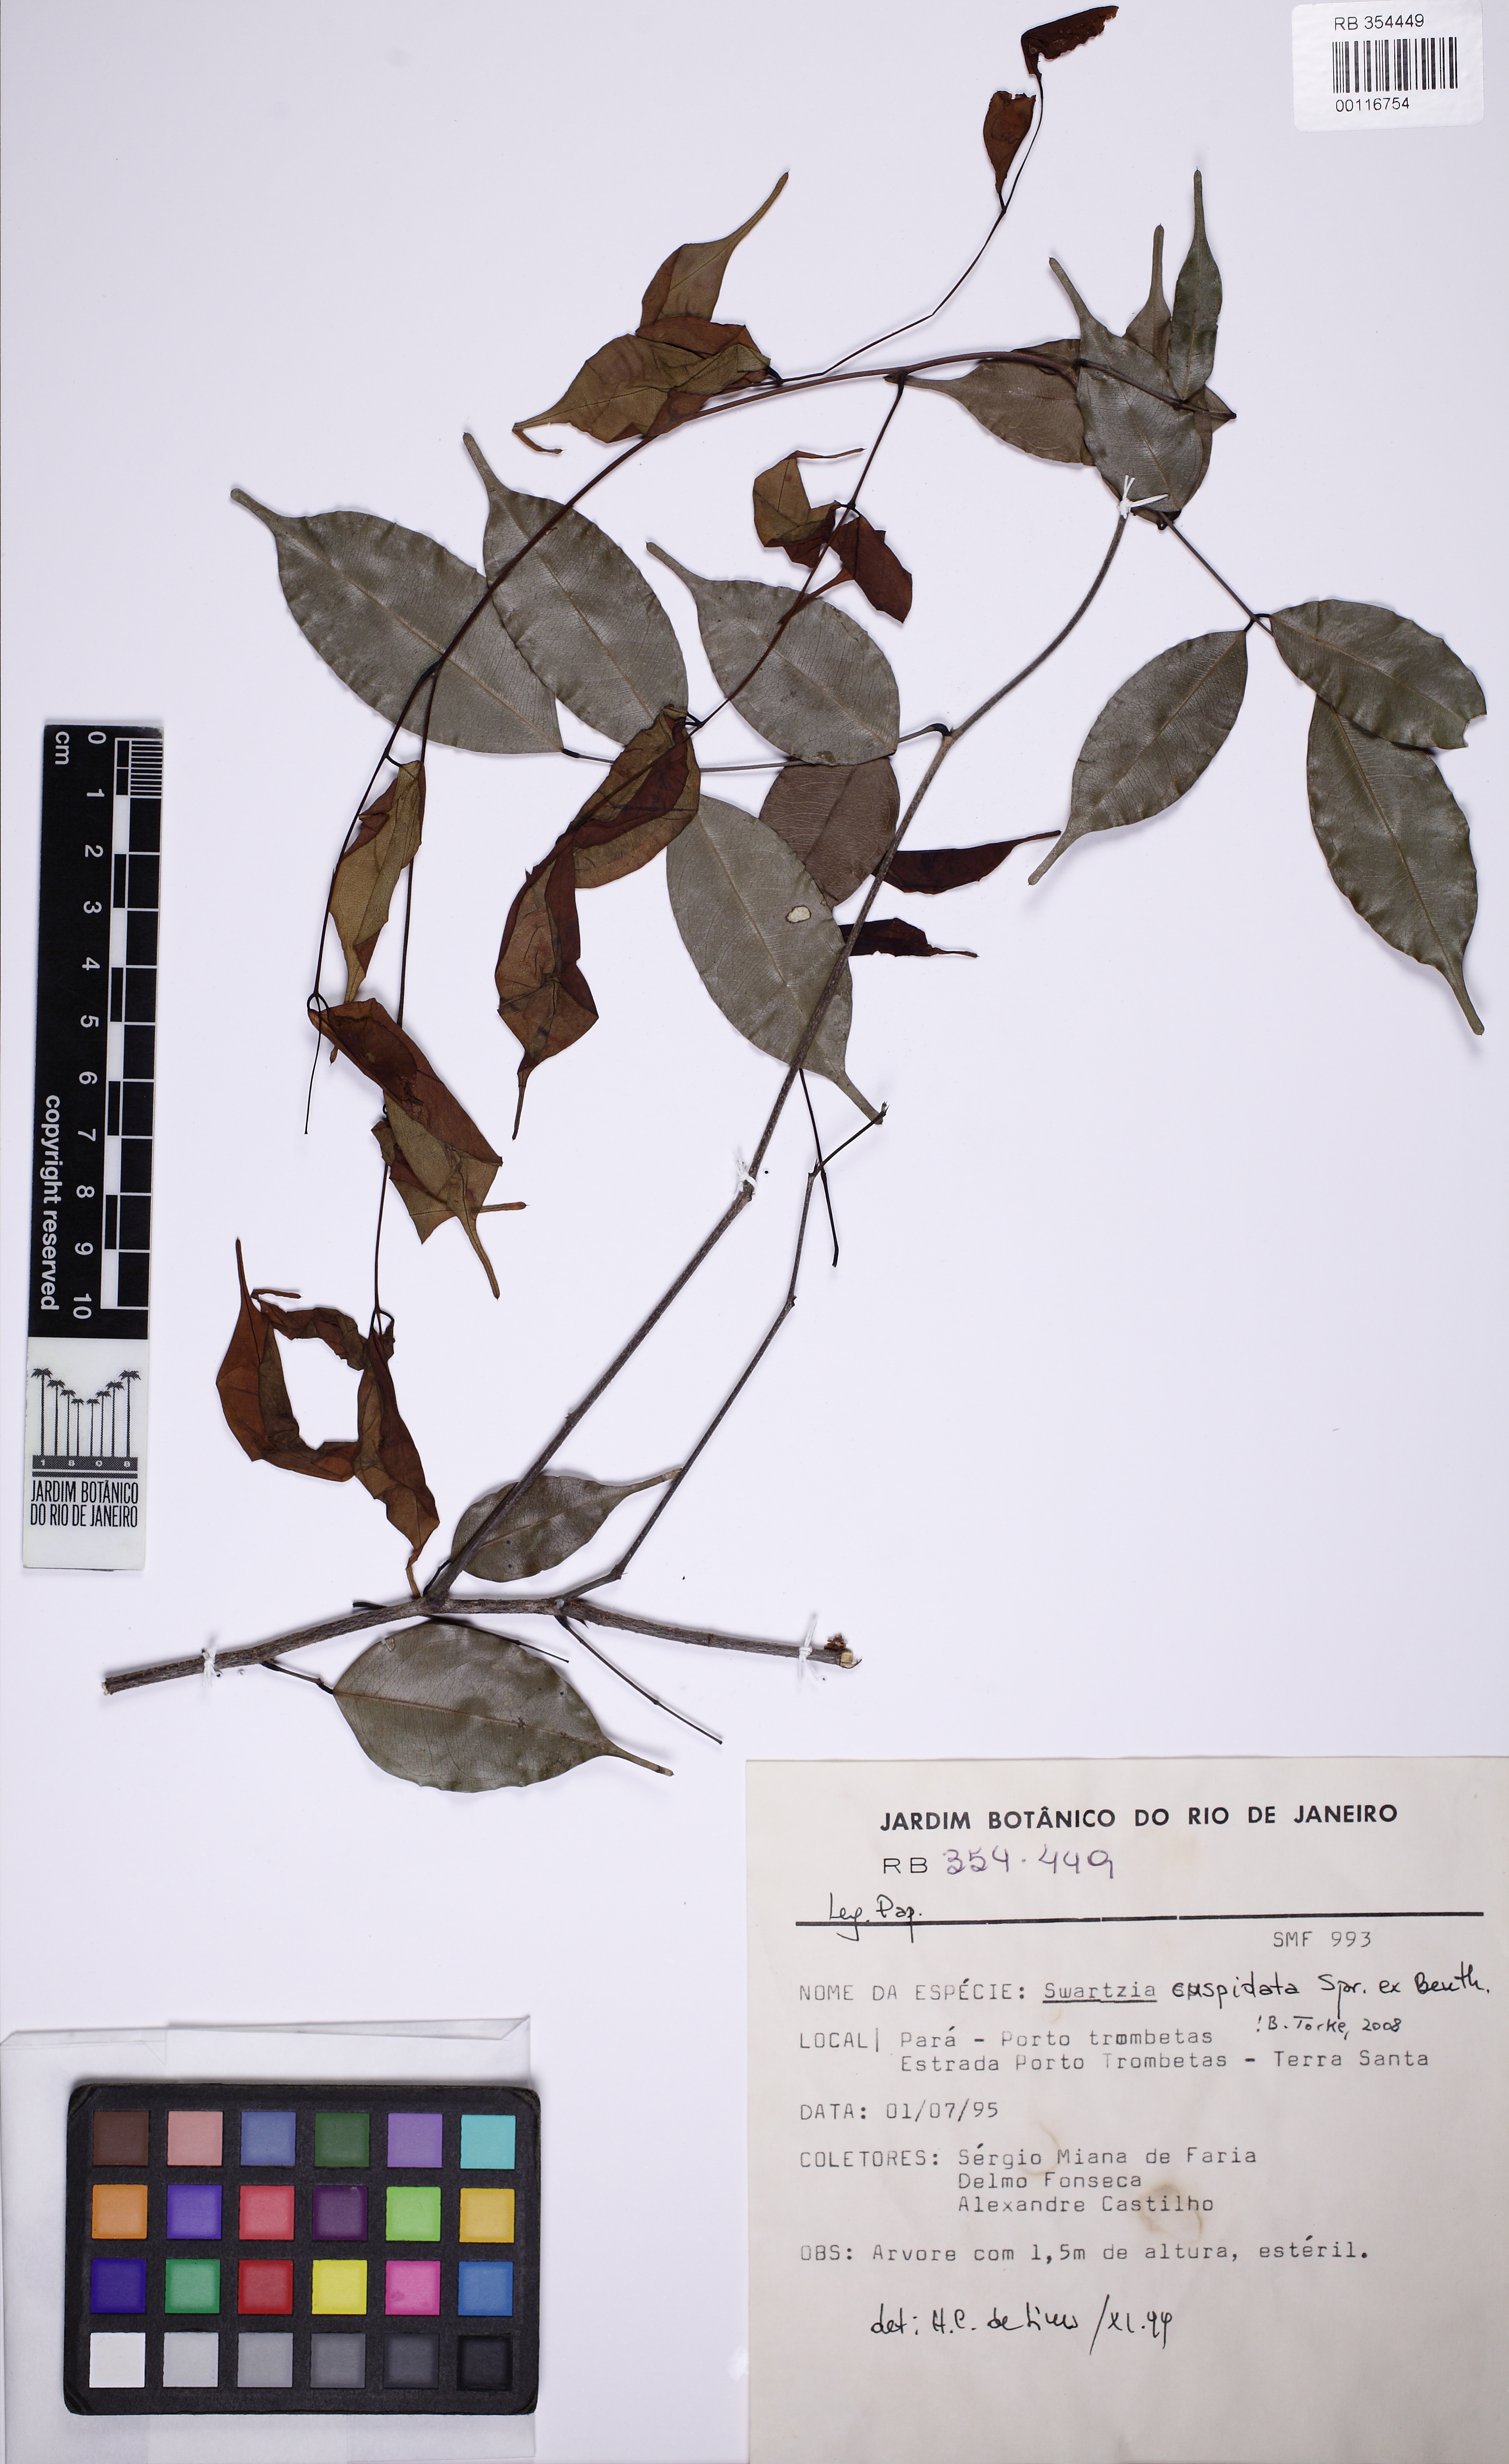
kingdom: Plantae
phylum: Tracheophyta
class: Magnoliopsida
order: Fabales
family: Fabaceae
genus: Swartzia
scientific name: Swartzia cuspidata
